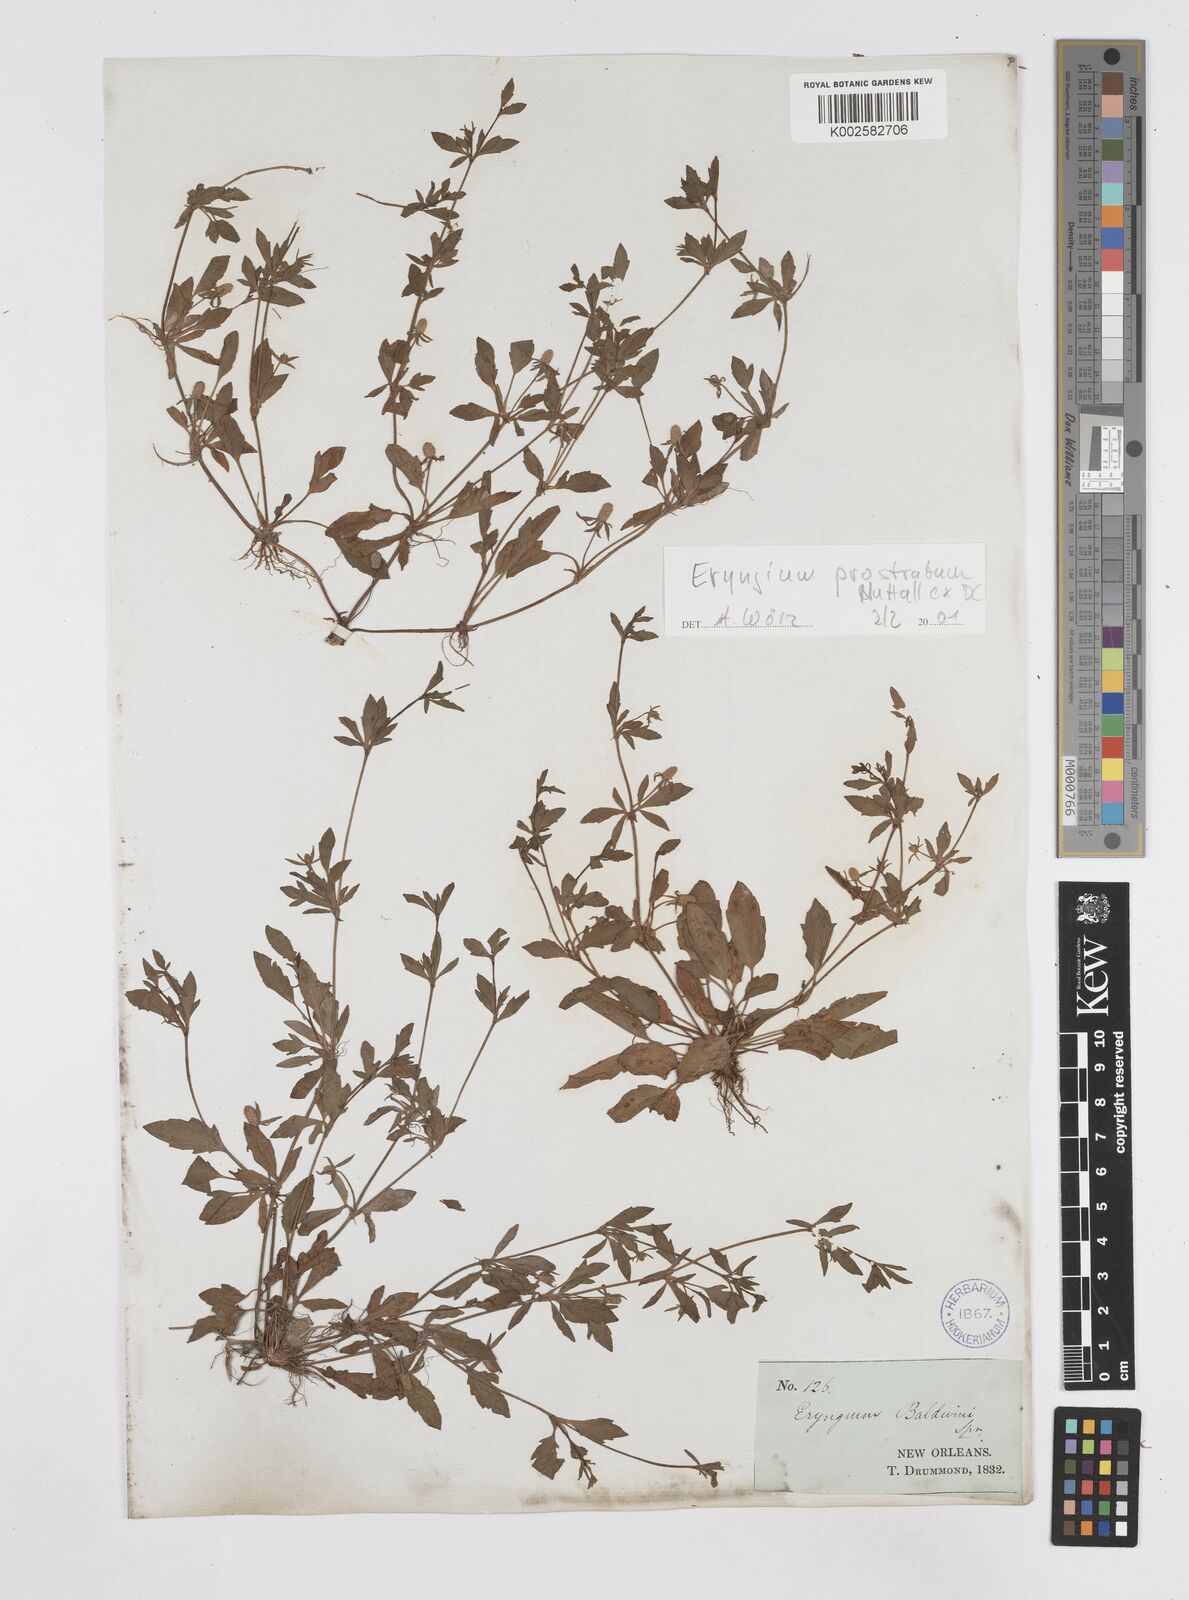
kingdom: Plantae
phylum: Tracheophyta
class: Magnoliopsida
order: Apiales
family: Apiaceae
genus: Eryngium
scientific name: Eryngium prostratum
